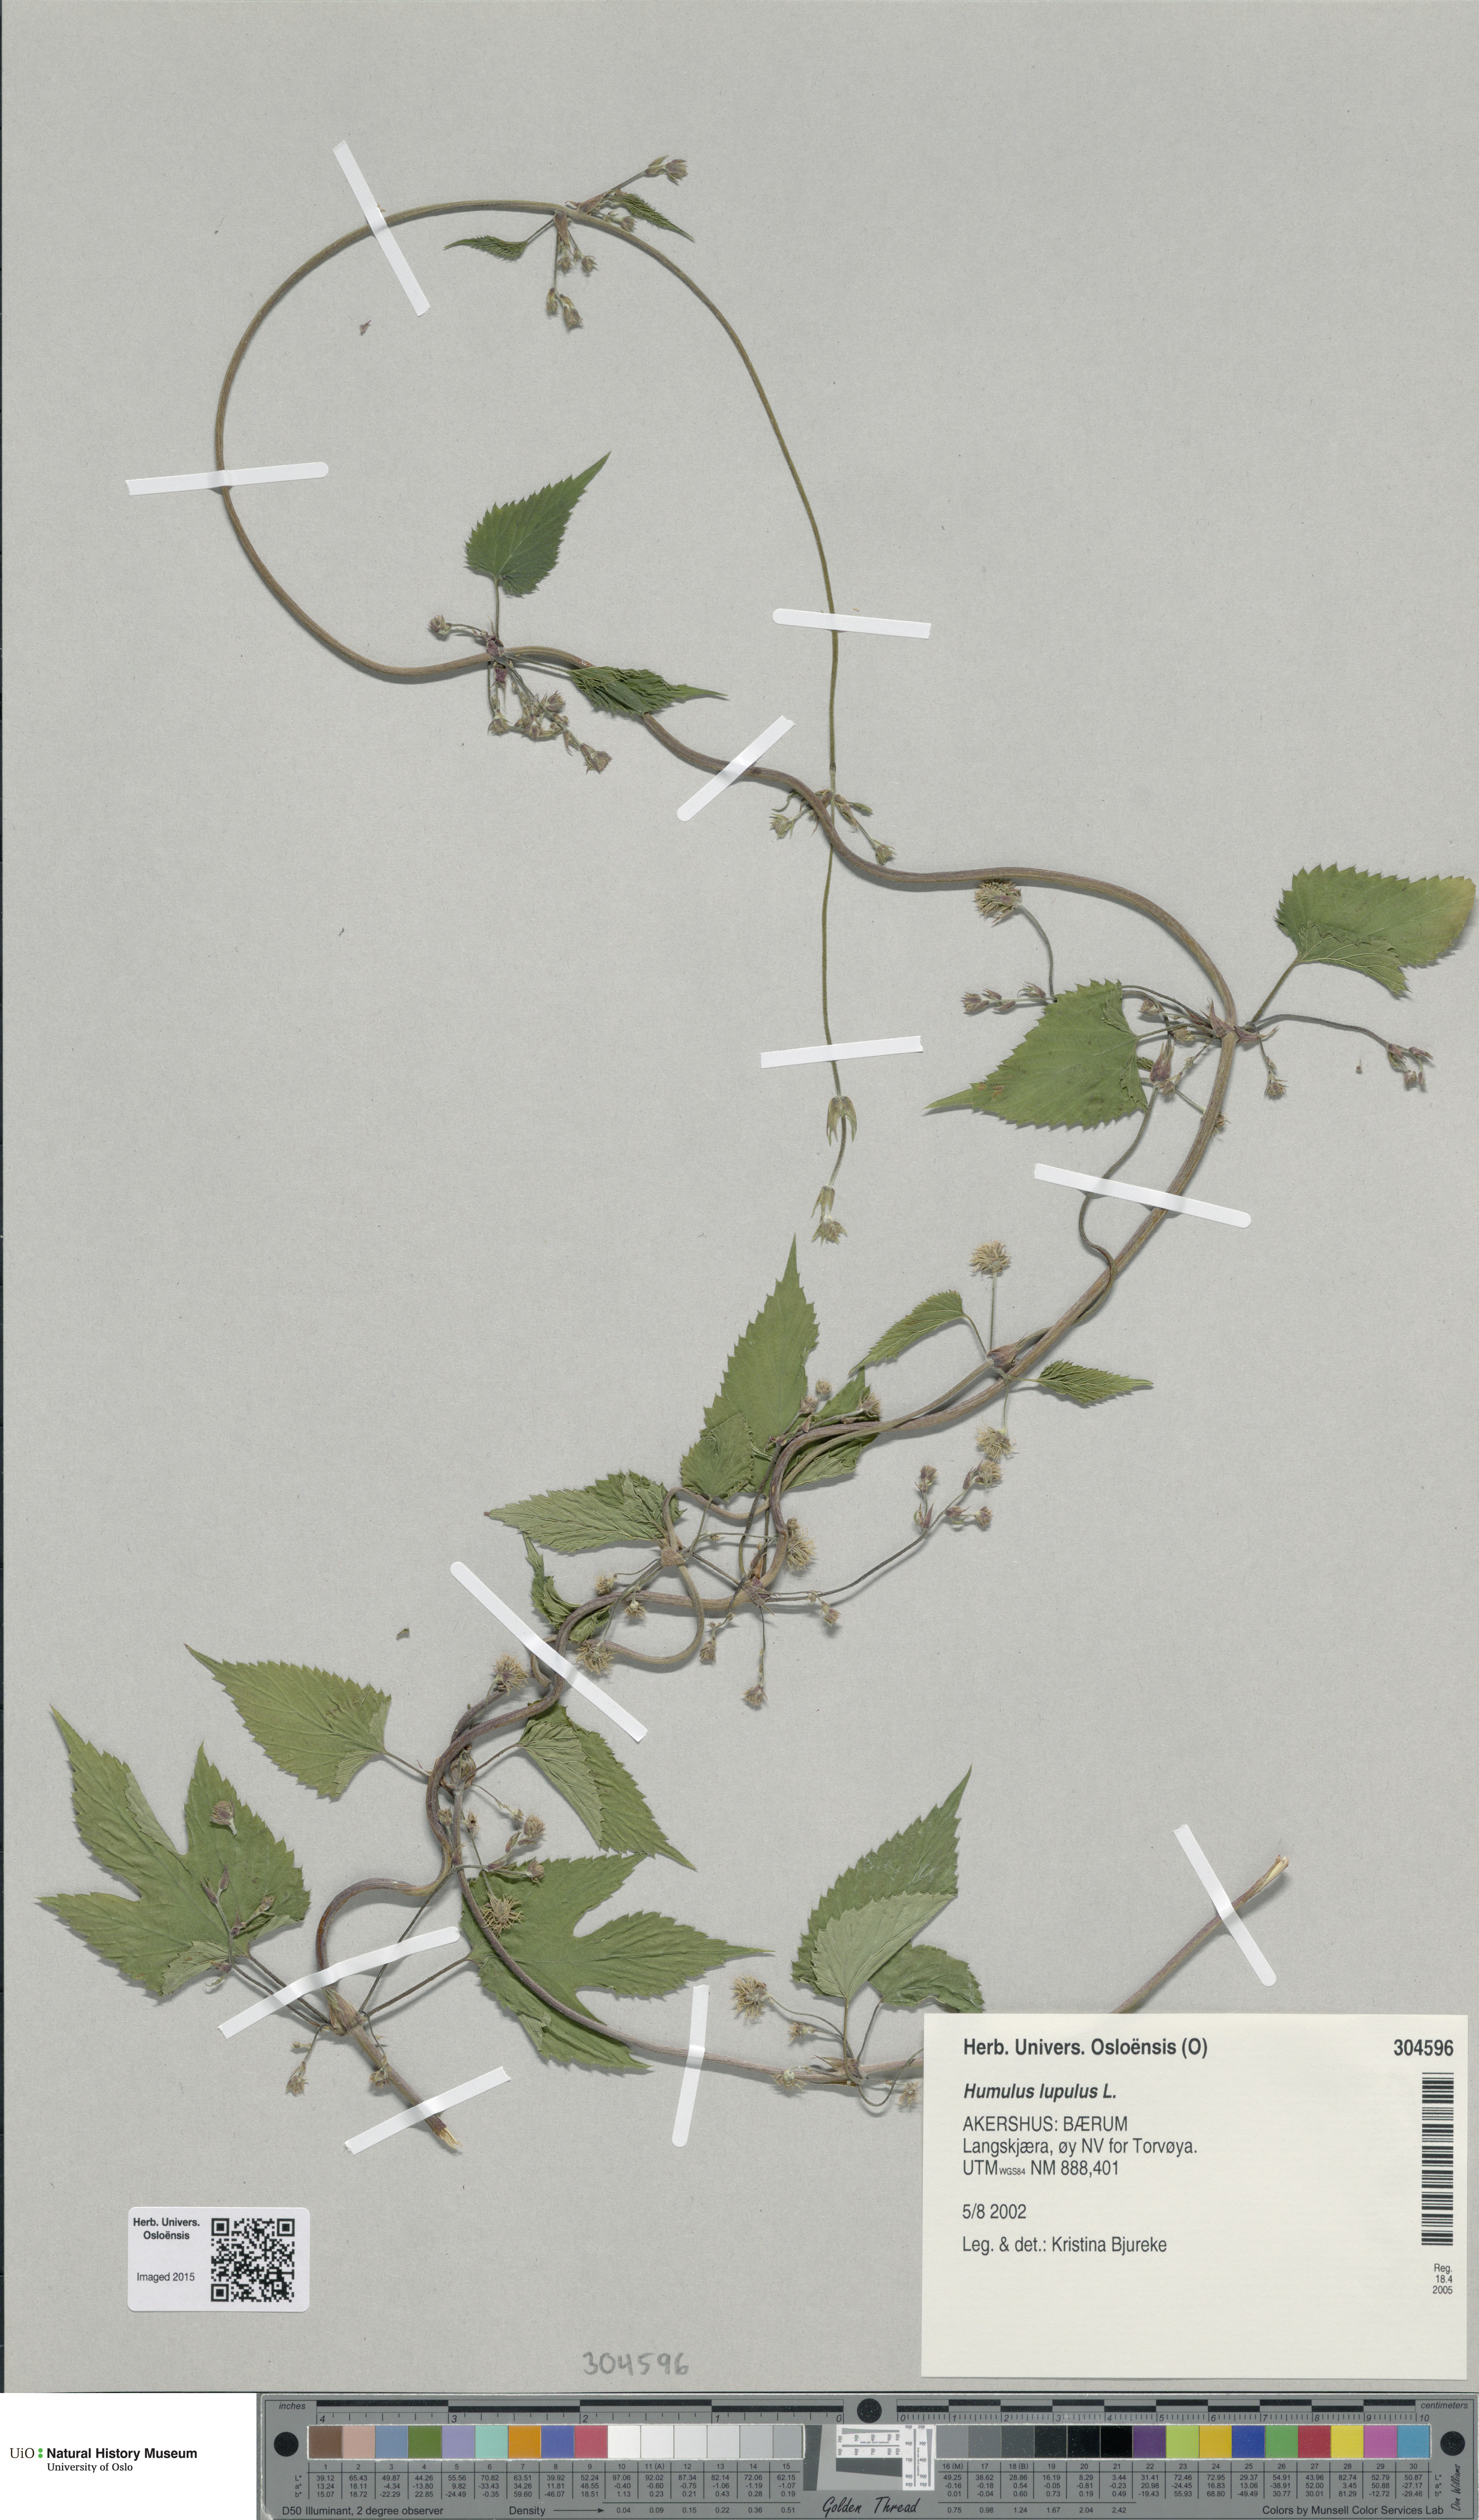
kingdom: Plantae
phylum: Tracheophyta
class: Magnoliopsida
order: Rosales
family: Cannabaceae
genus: Humulus
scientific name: Humulus lupulus
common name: Hop
